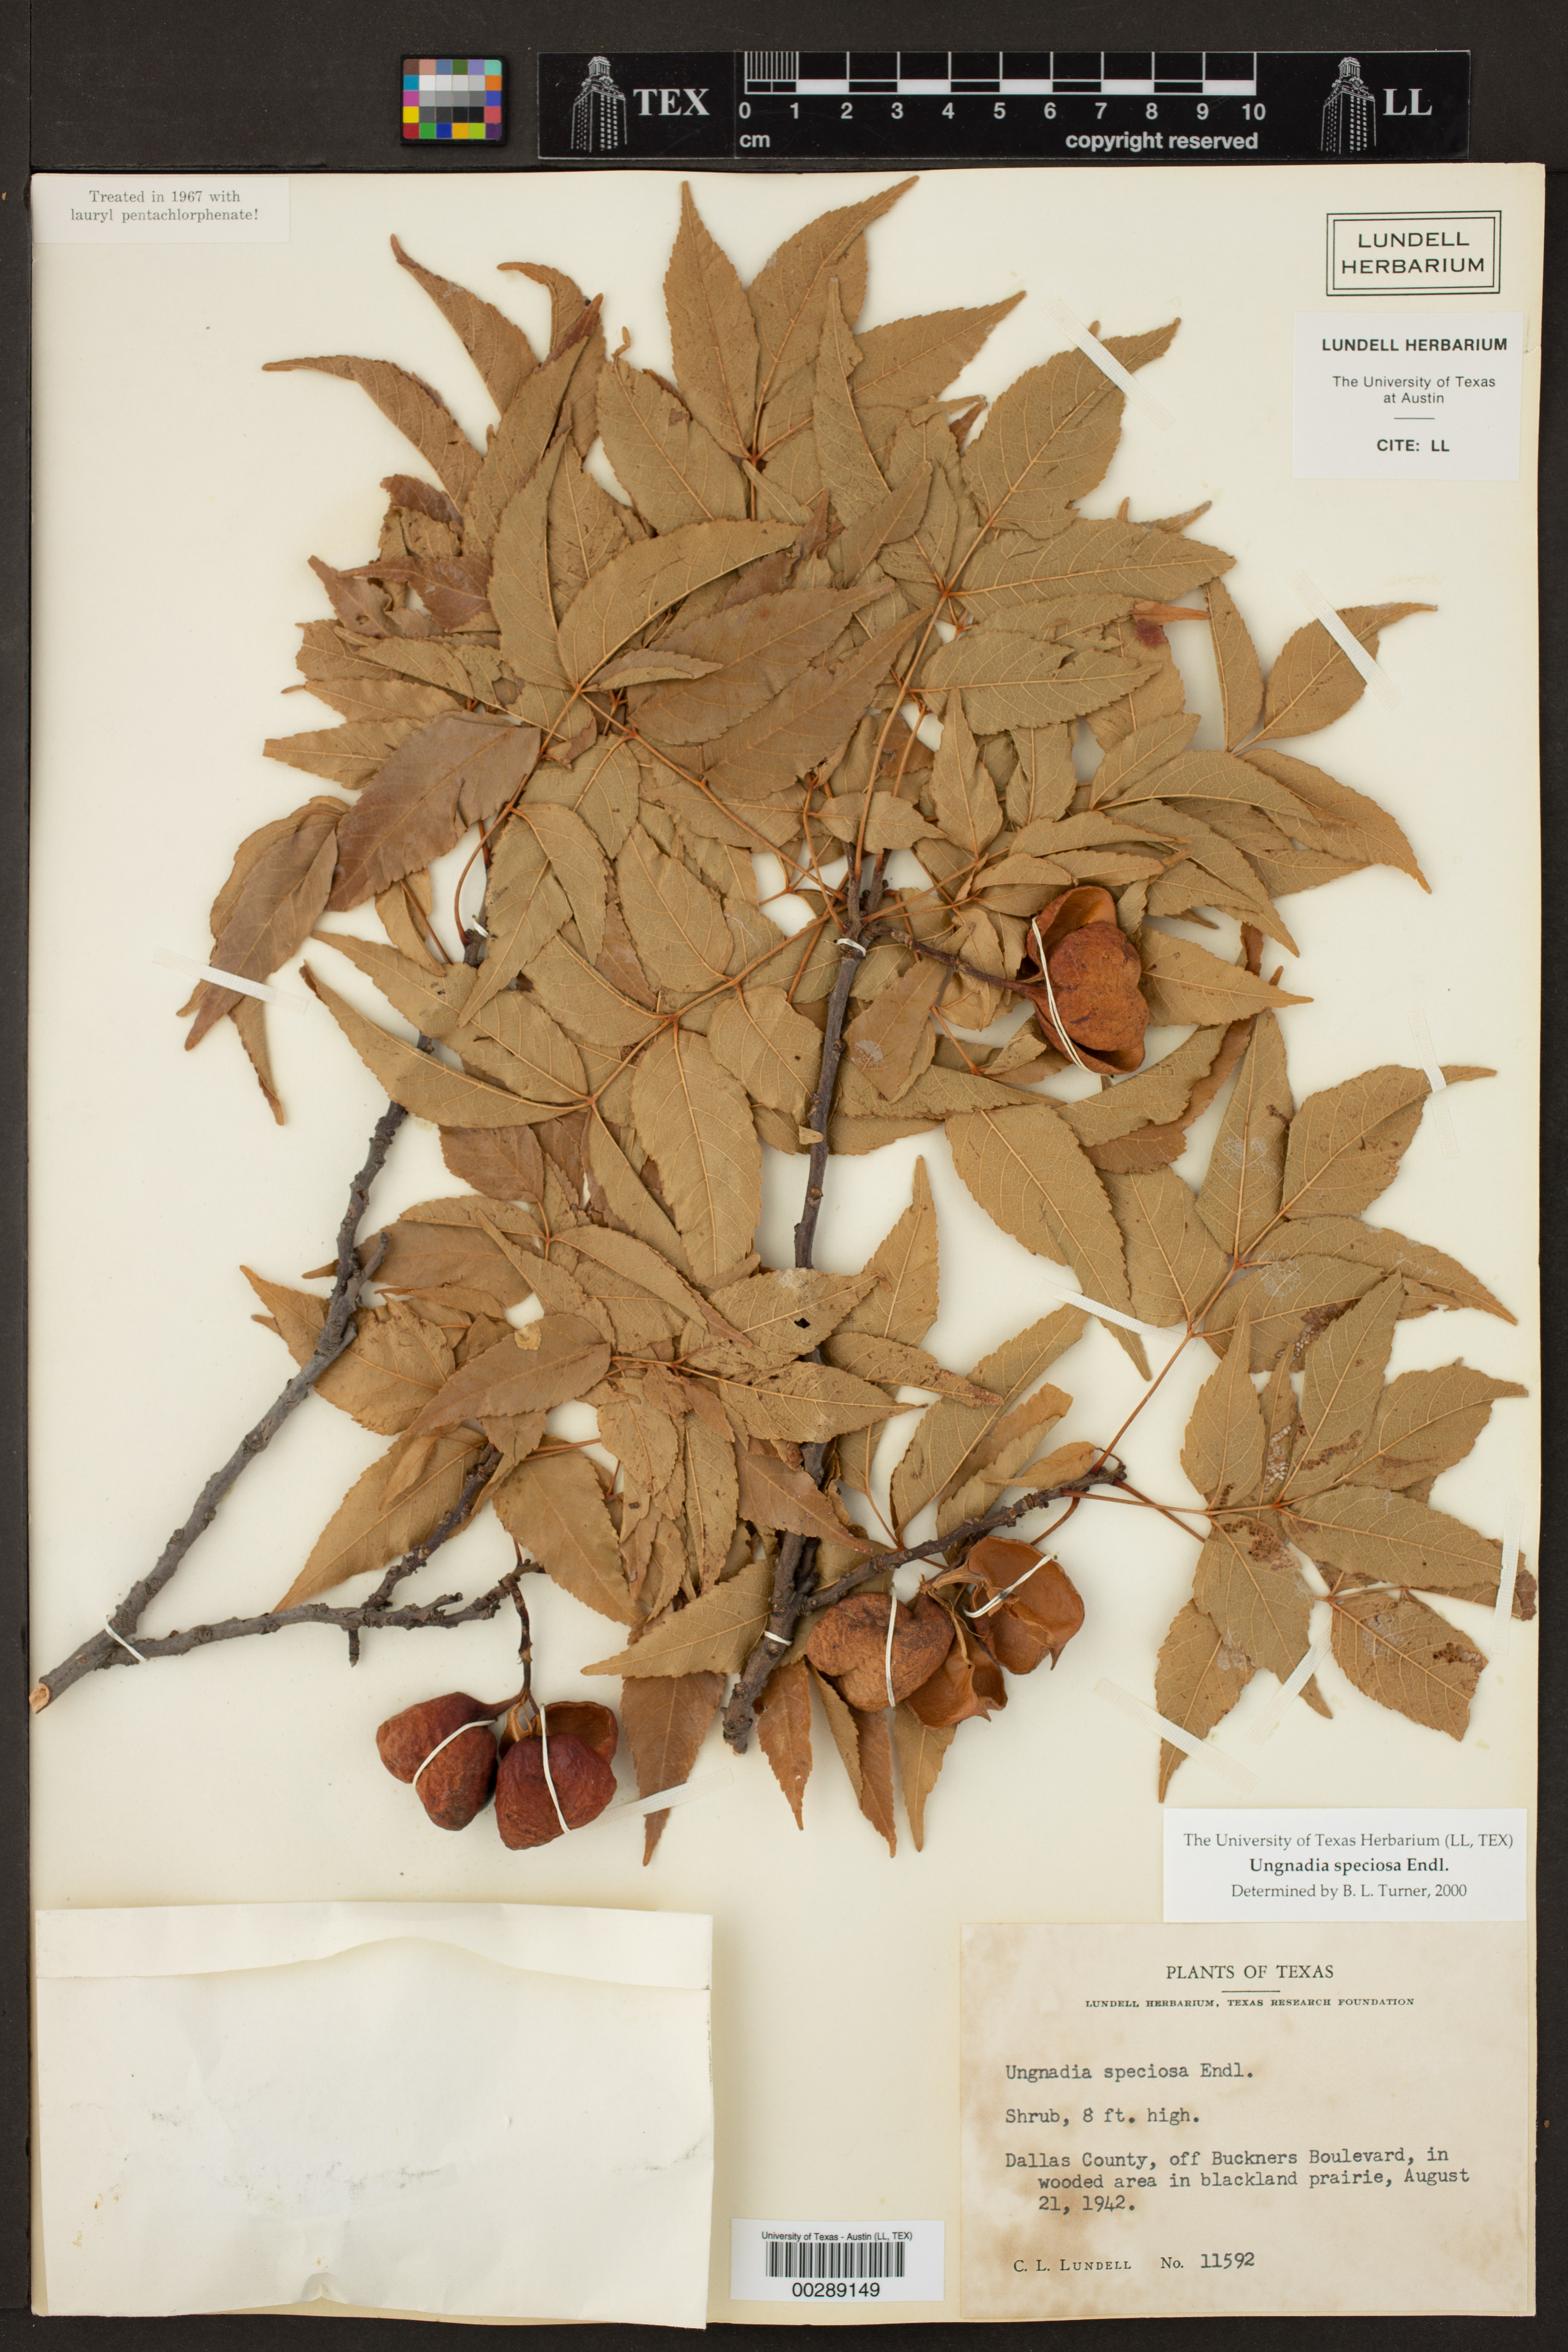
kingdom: Plantae
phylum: Tracheophyta
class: Magnoliopsida
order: Sapindales
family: Sapindaceae
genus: Ungnadia
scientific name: Ungnadia speciosa
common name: Texas-buckeye
